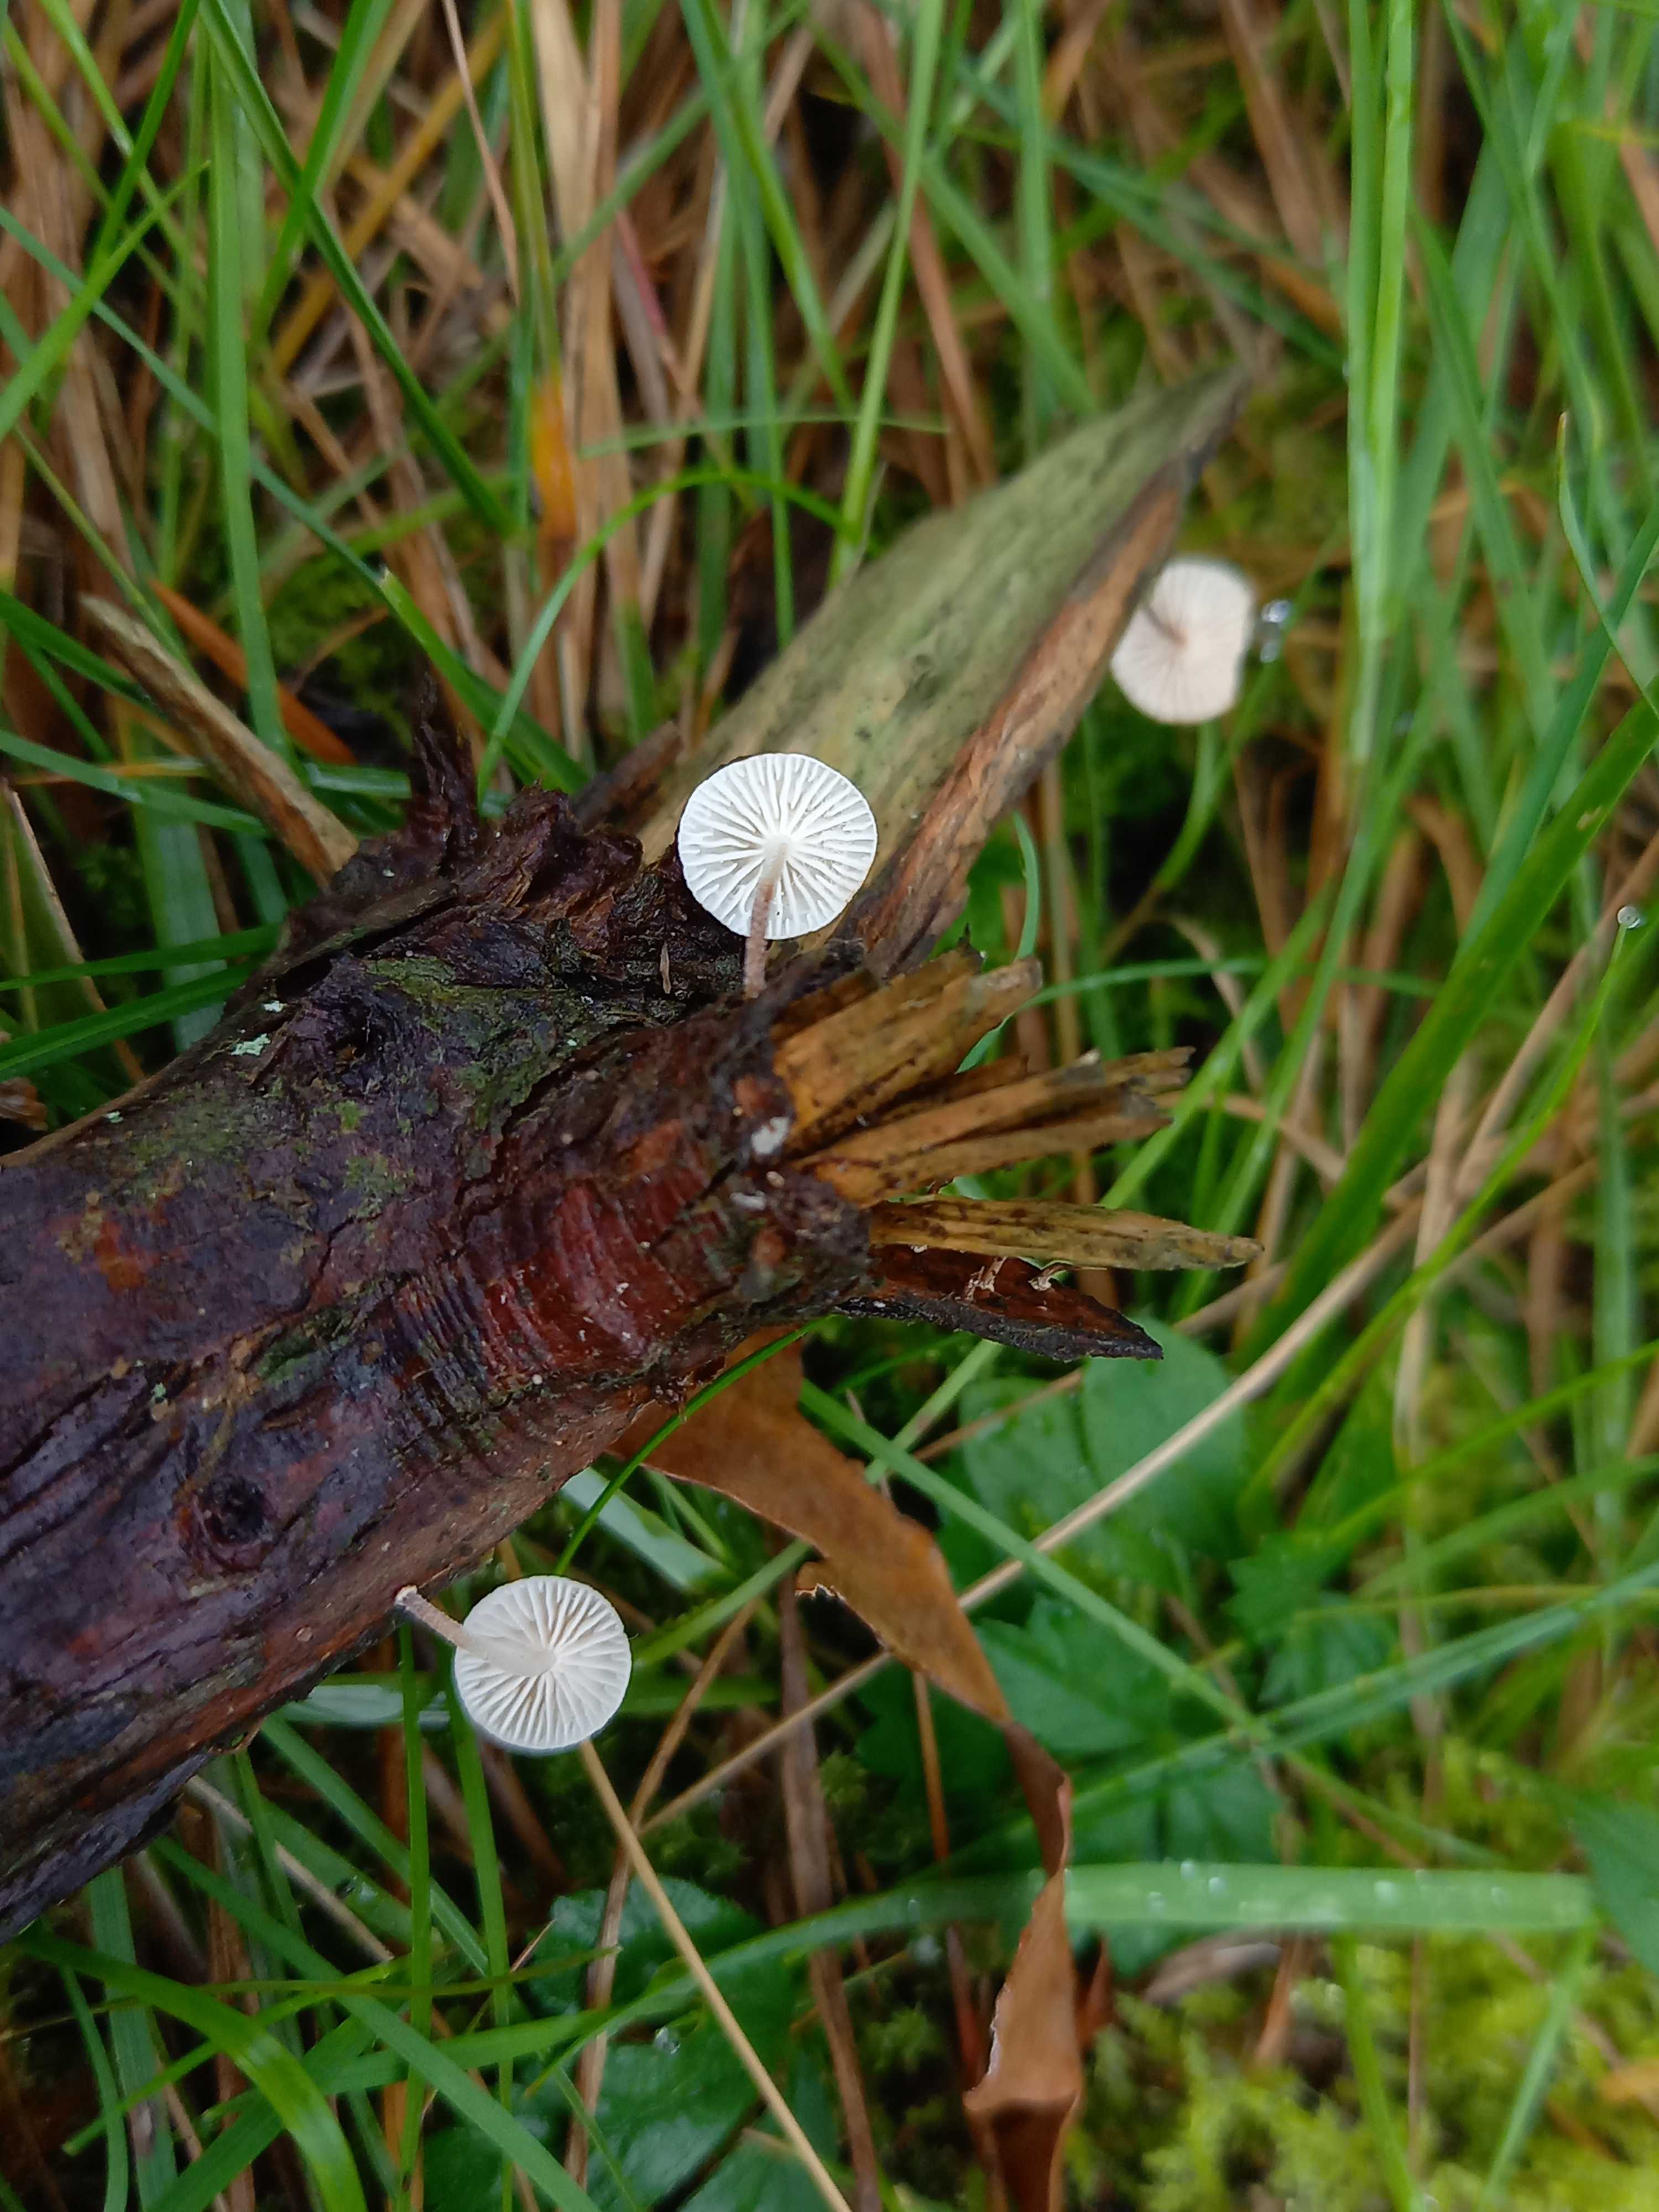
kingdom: Fungi
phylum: Basidiomycota
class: Agaricomycetes
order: Agaricales
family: Omphalotaceae
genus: Collybiopsis
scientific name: Collybiopsis ramealis
